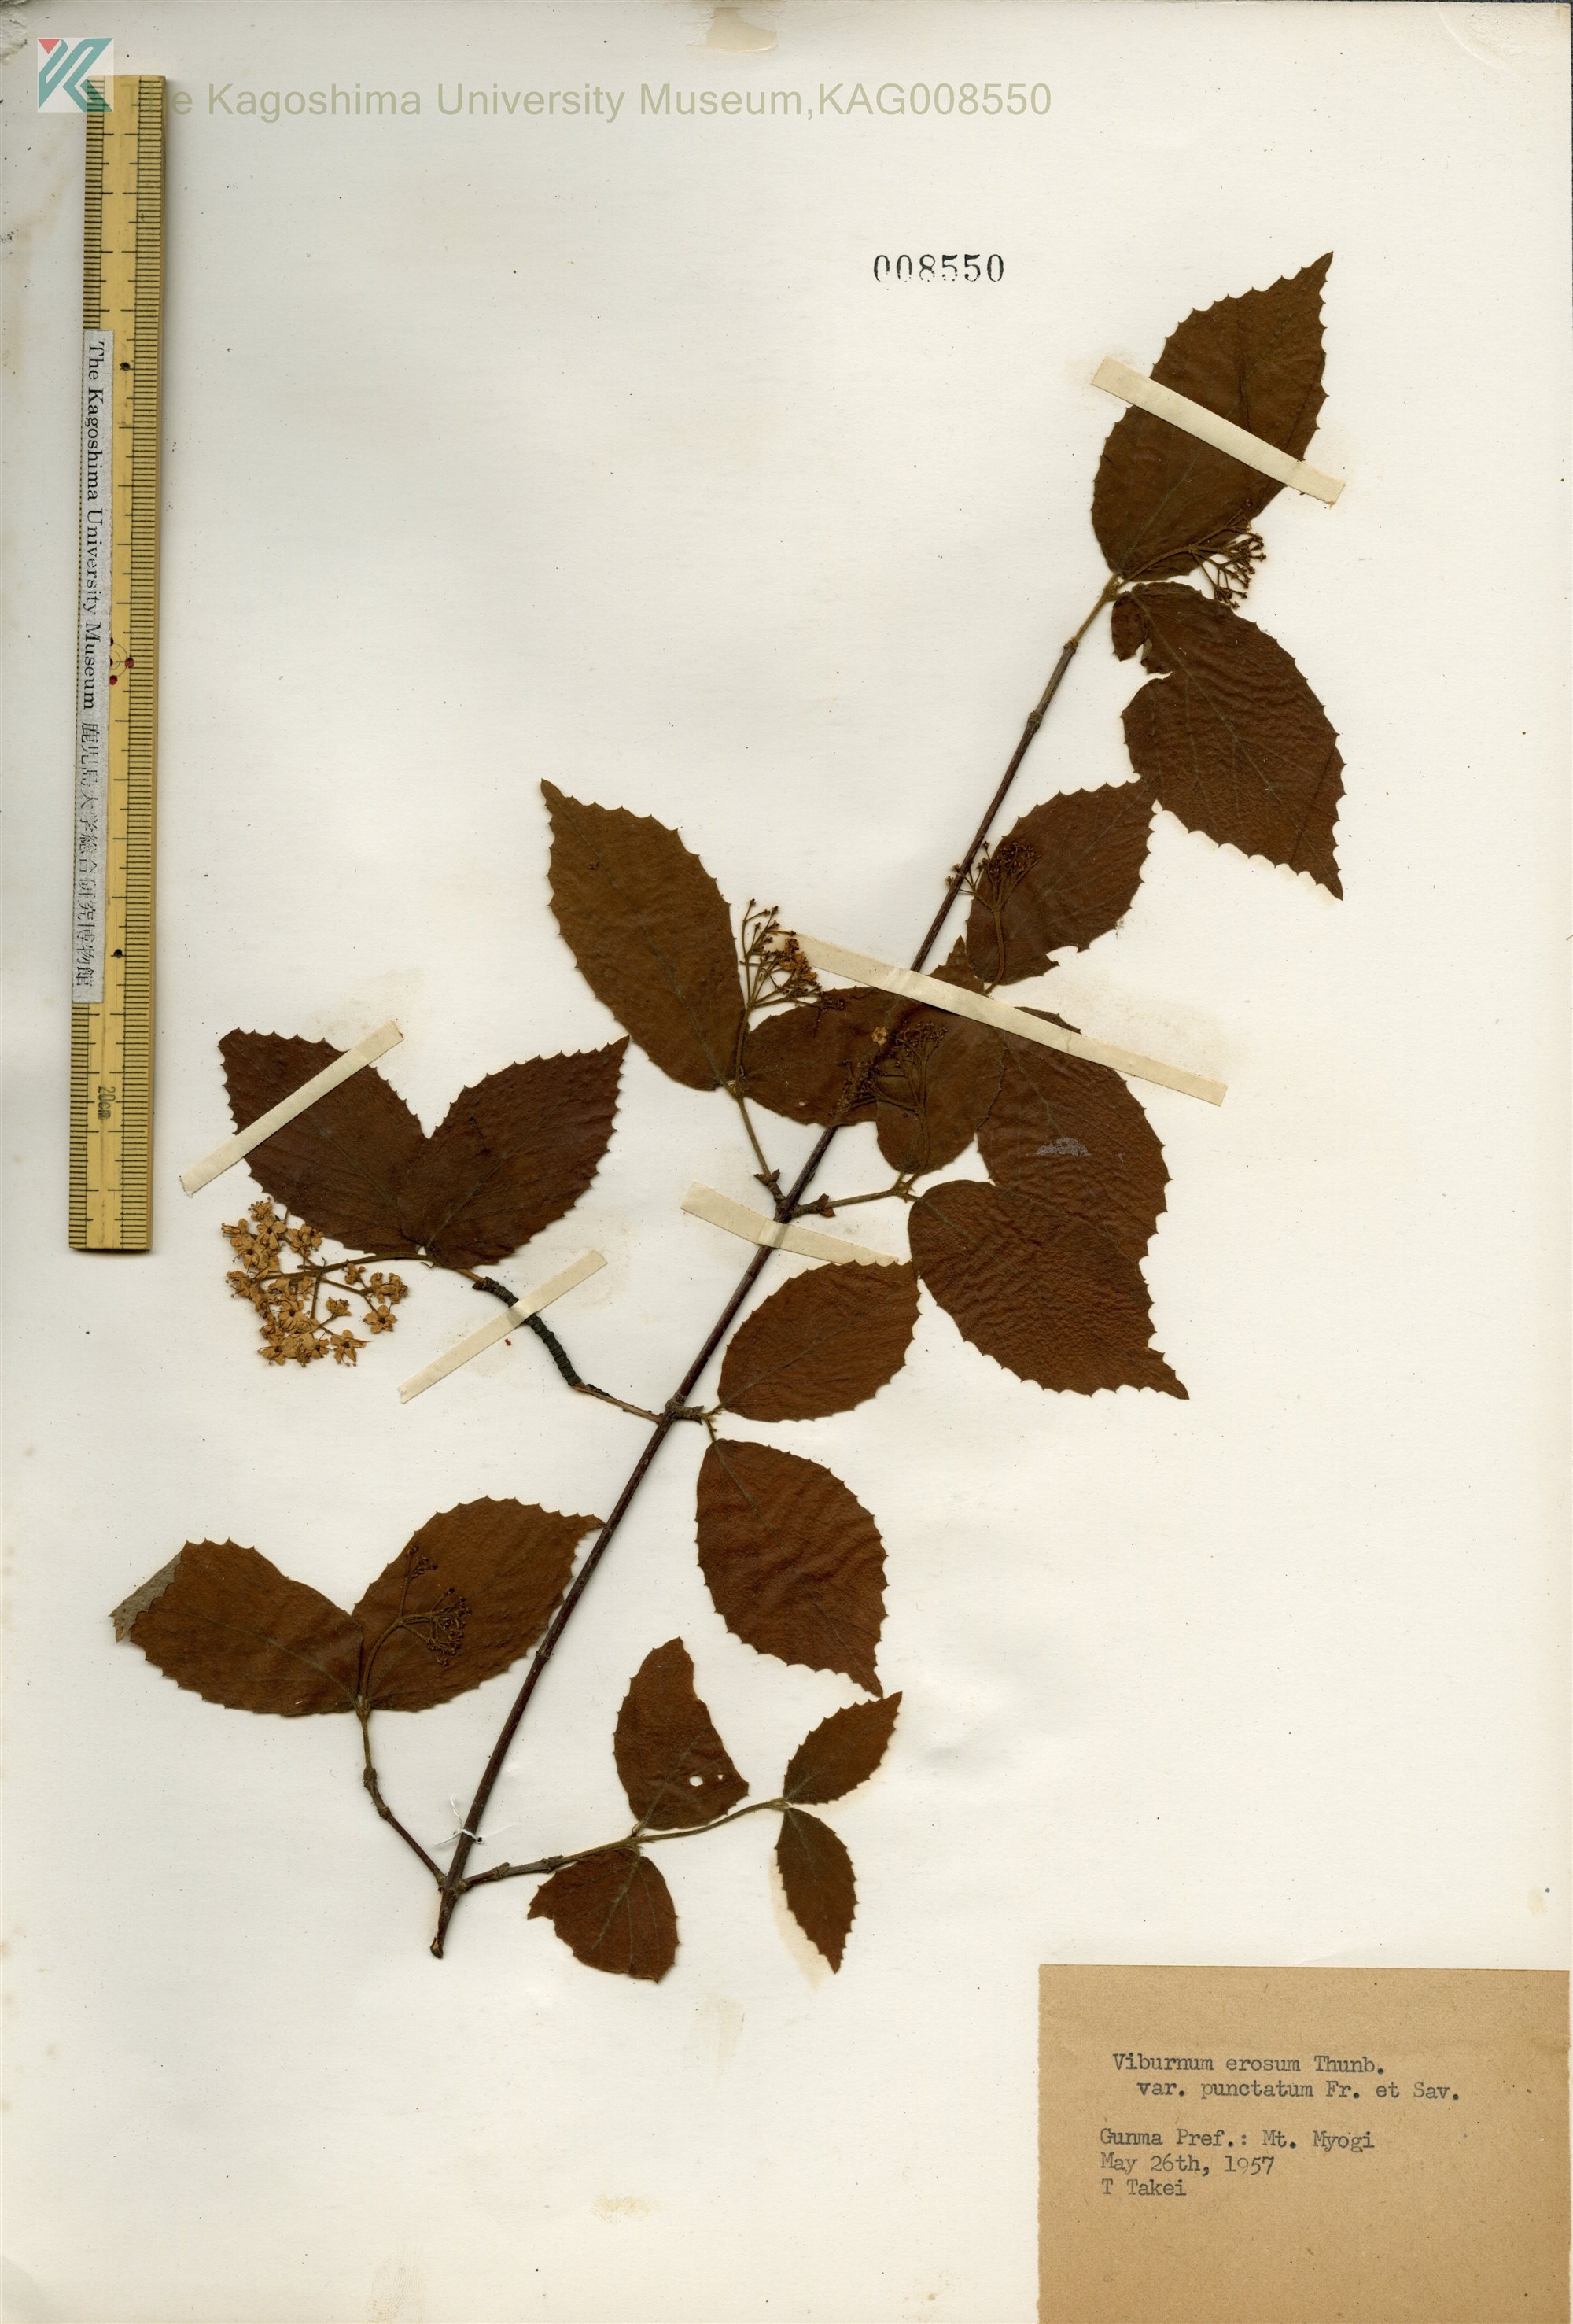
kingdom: Plantae
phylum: Tracheophyta
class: Magnoliopsida
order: Dipsacales
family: Viburnaceae
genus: Viburnum
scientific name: Viburnum erosum
